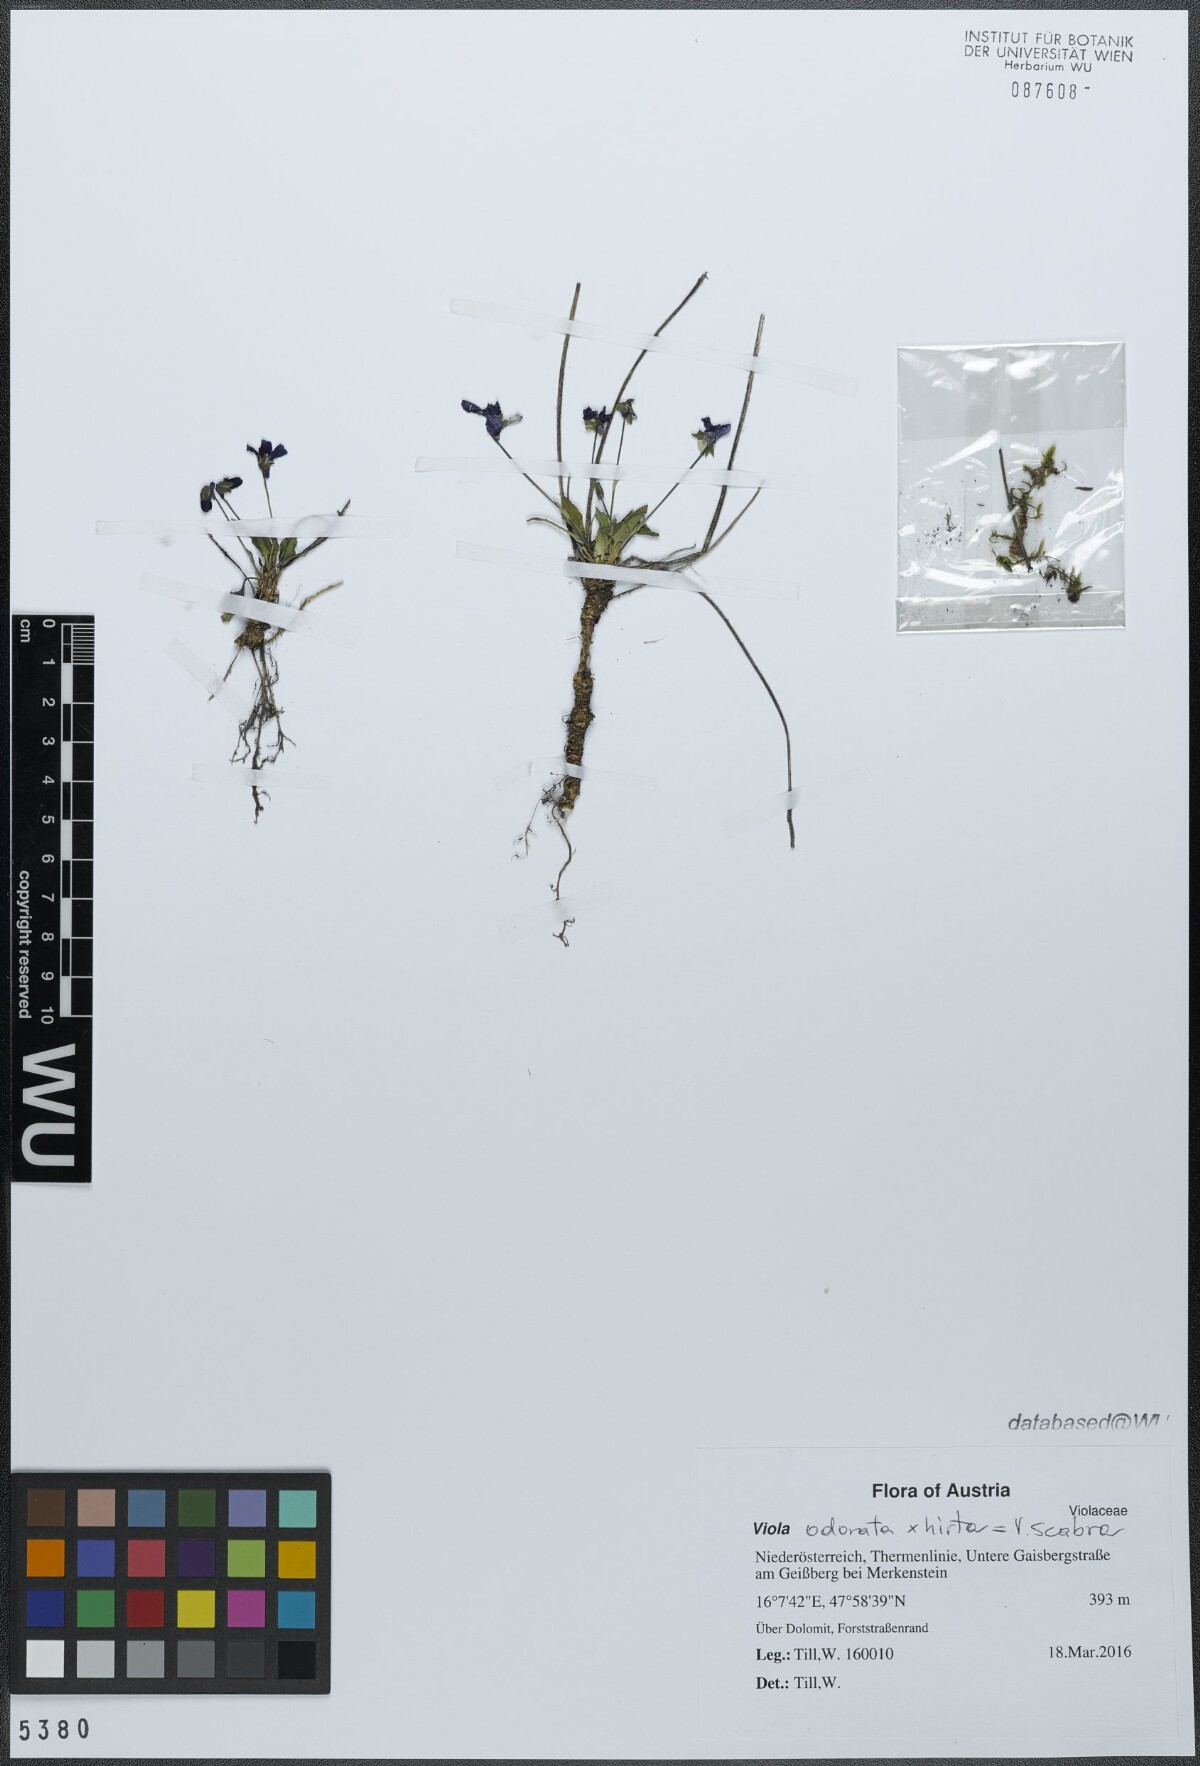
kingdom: Plantae
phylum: Tracheophyta
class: Magnoliopsida
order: Malpighiales
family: Violaceae
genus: Viola
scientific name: Viola scabra
